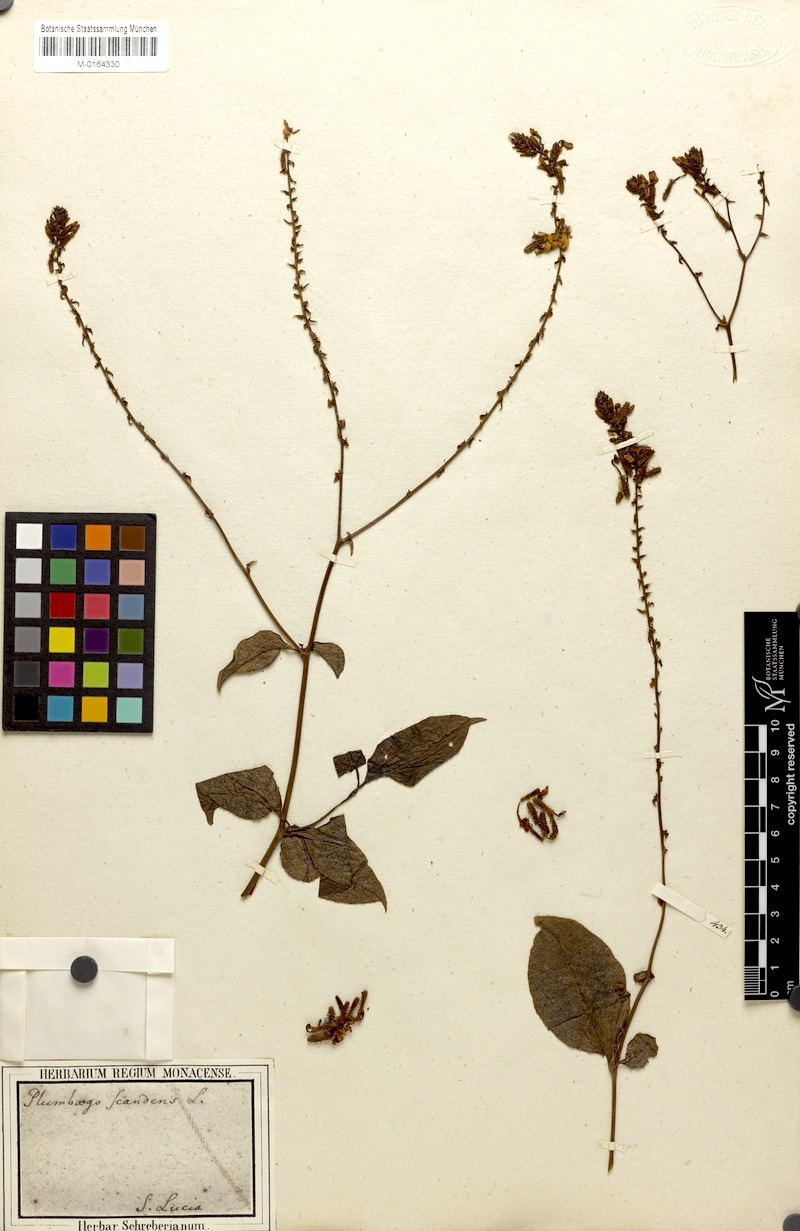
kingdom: Plantae
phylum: Tracheophyta
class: Magnoliopsida
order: Caryophyllales
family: Plumbaginaceae
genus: Plumbago
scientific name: Plumbago zeylanica
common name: Doctorbush
